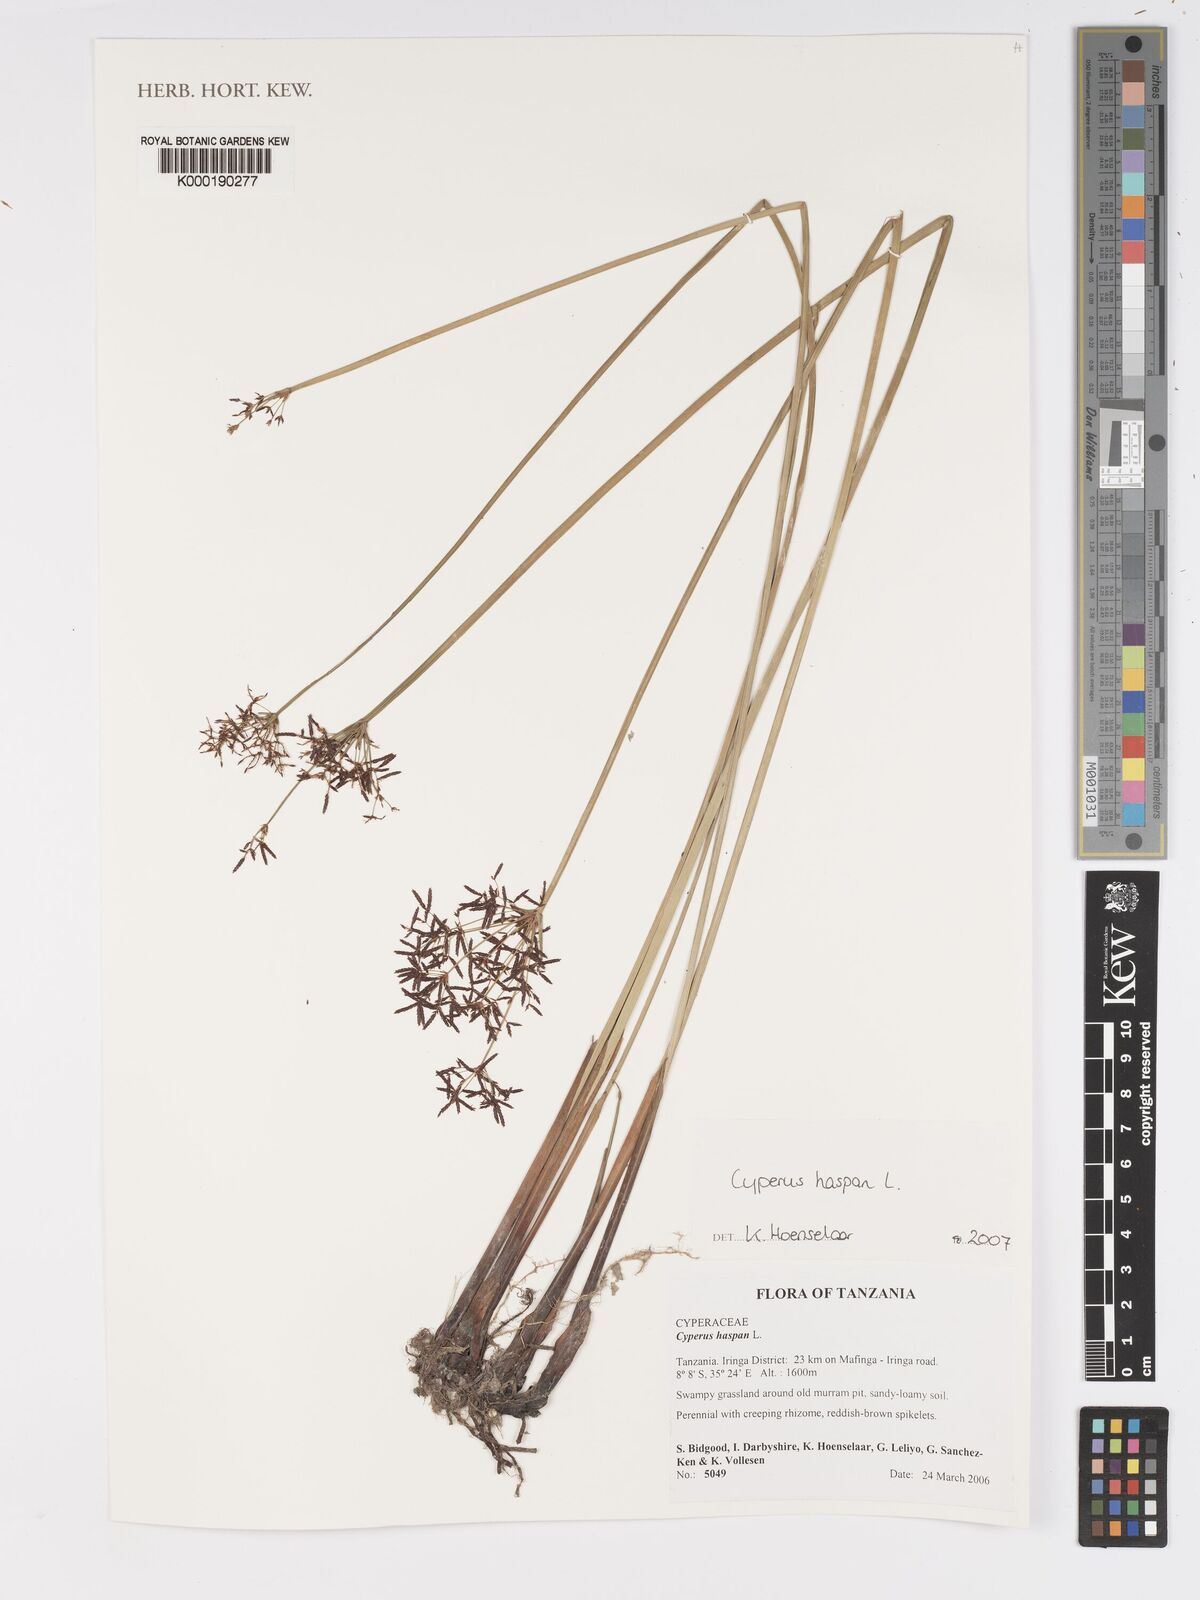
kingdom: Plantae
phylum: Tracheophyta
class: Liliopsida
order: Poales
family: Cyperaceae
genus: Cyperus
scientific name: Cyperus haspan
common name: Haspan flatsedge
